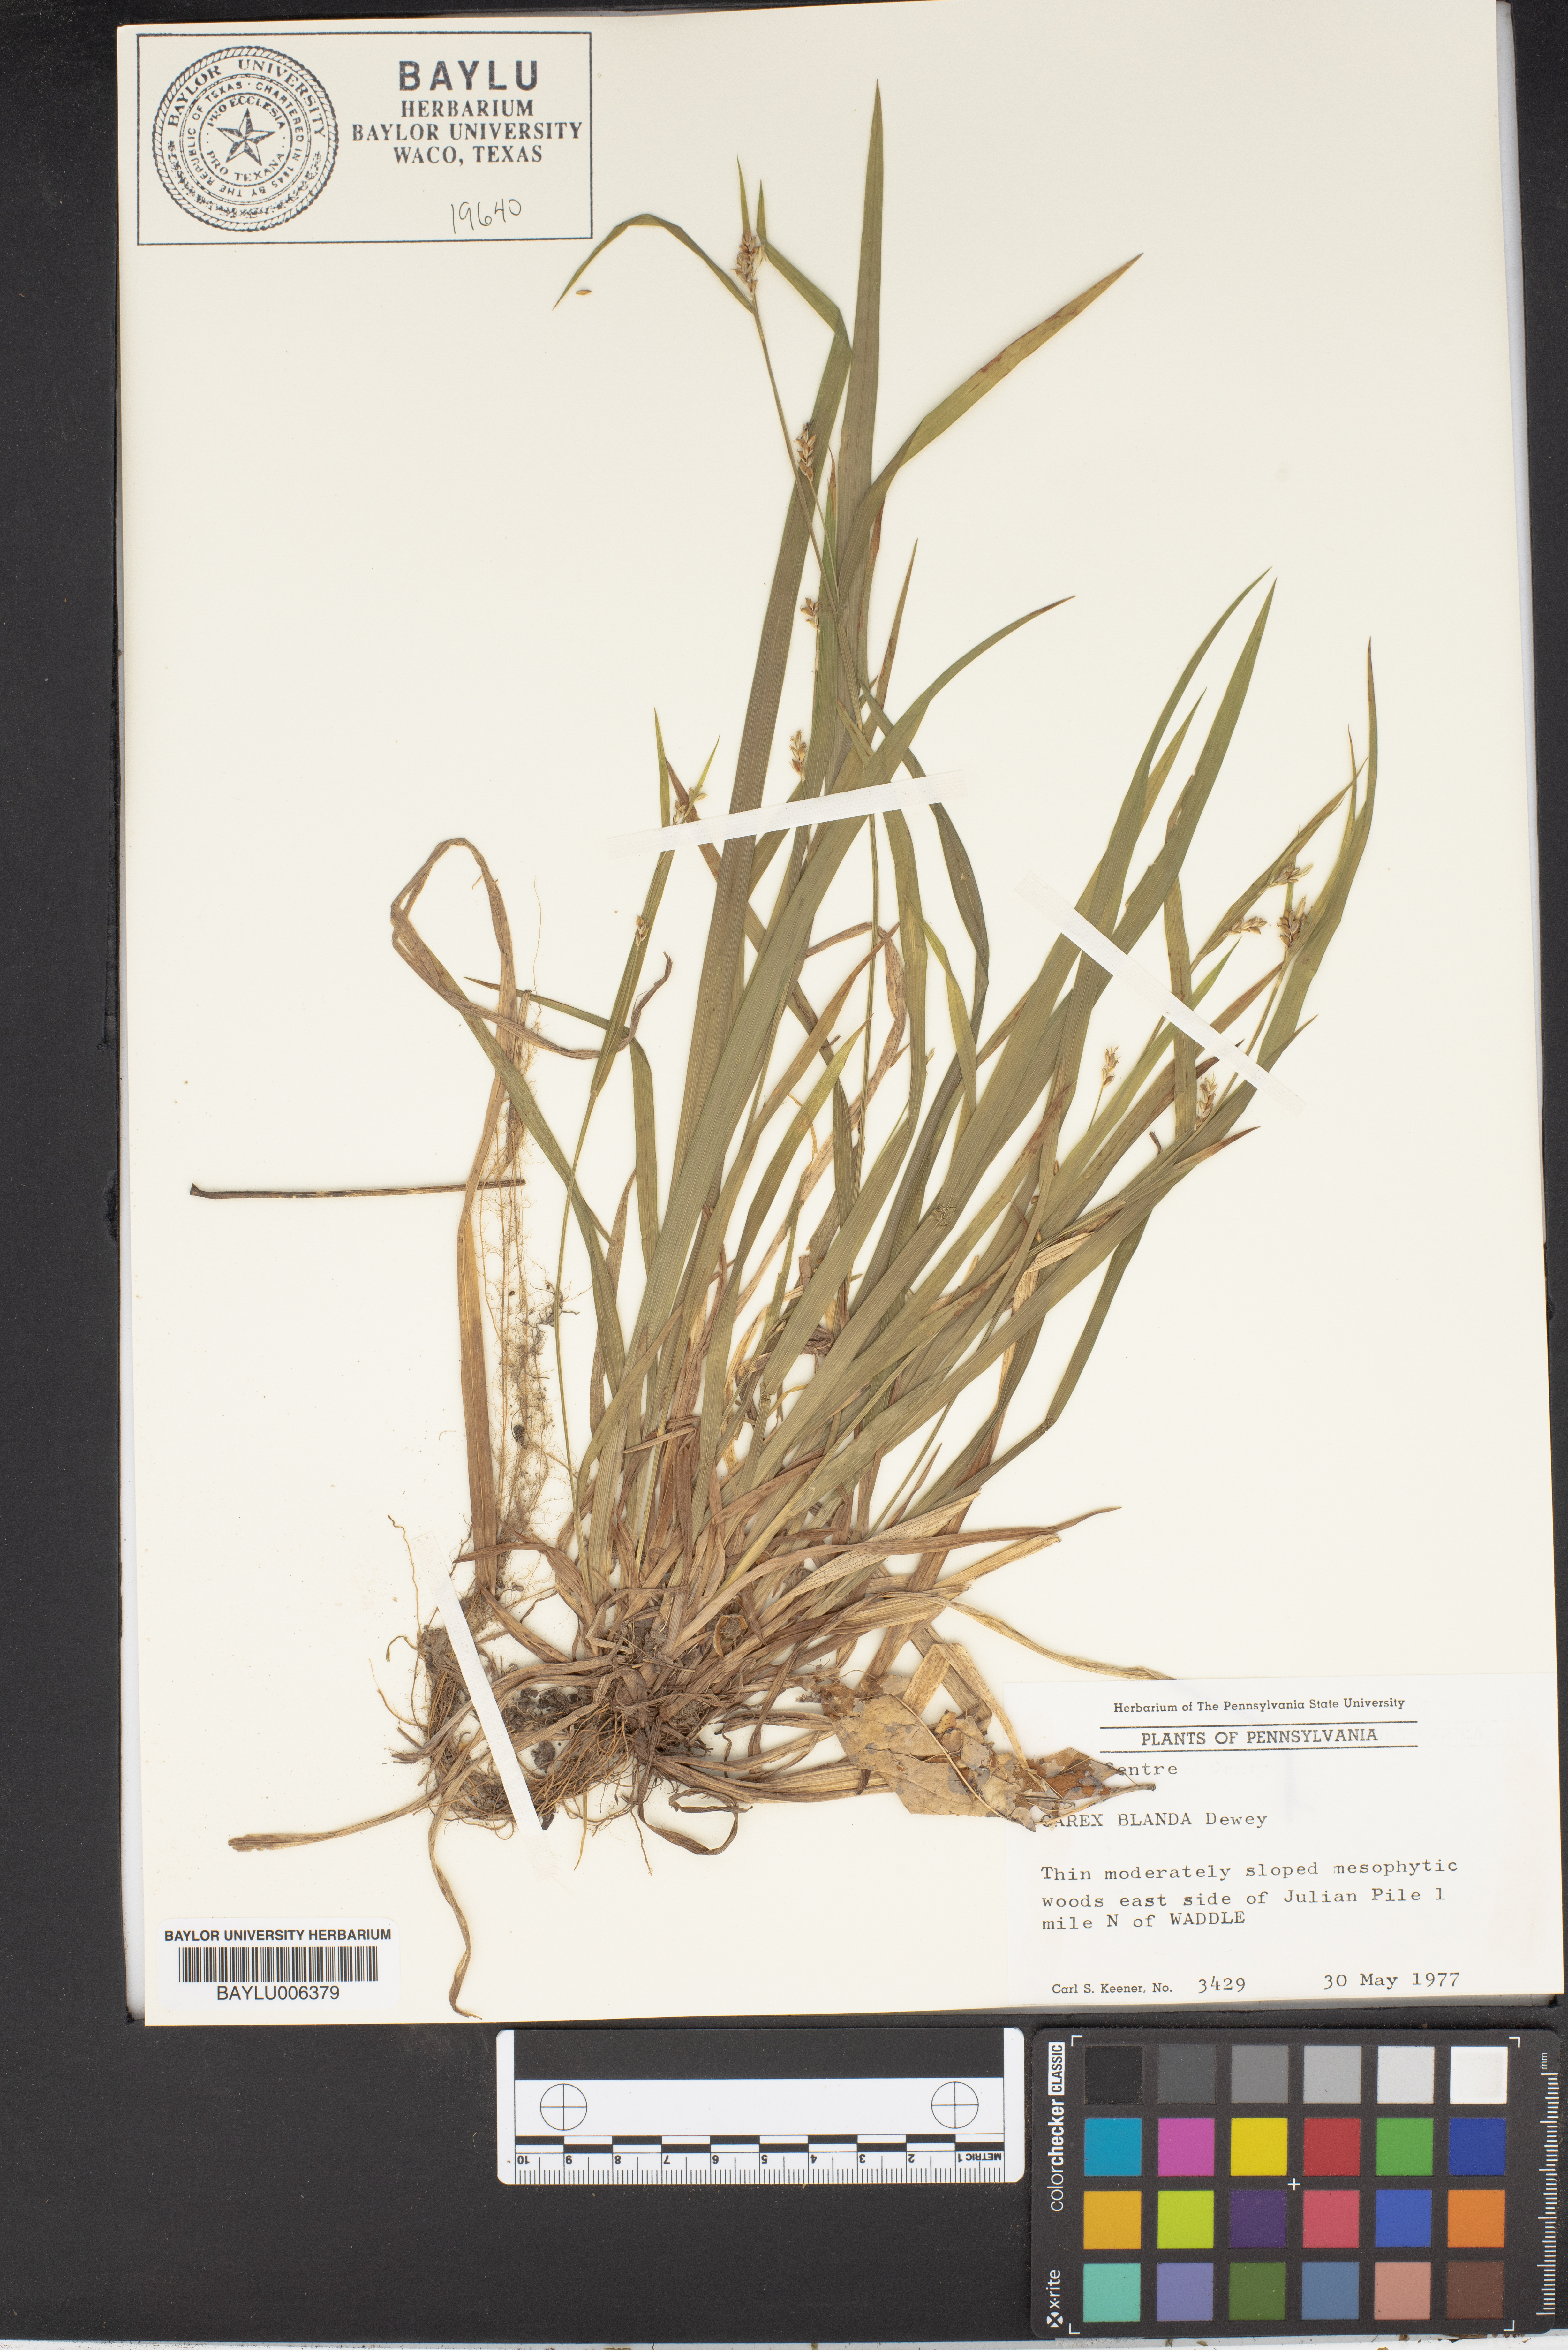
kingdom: Plantae
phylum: Tracheophyta
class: Liliopsida
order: Poales
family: Cyperaceae
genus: Carex
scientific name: Carex blanda
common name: Bland sedge
